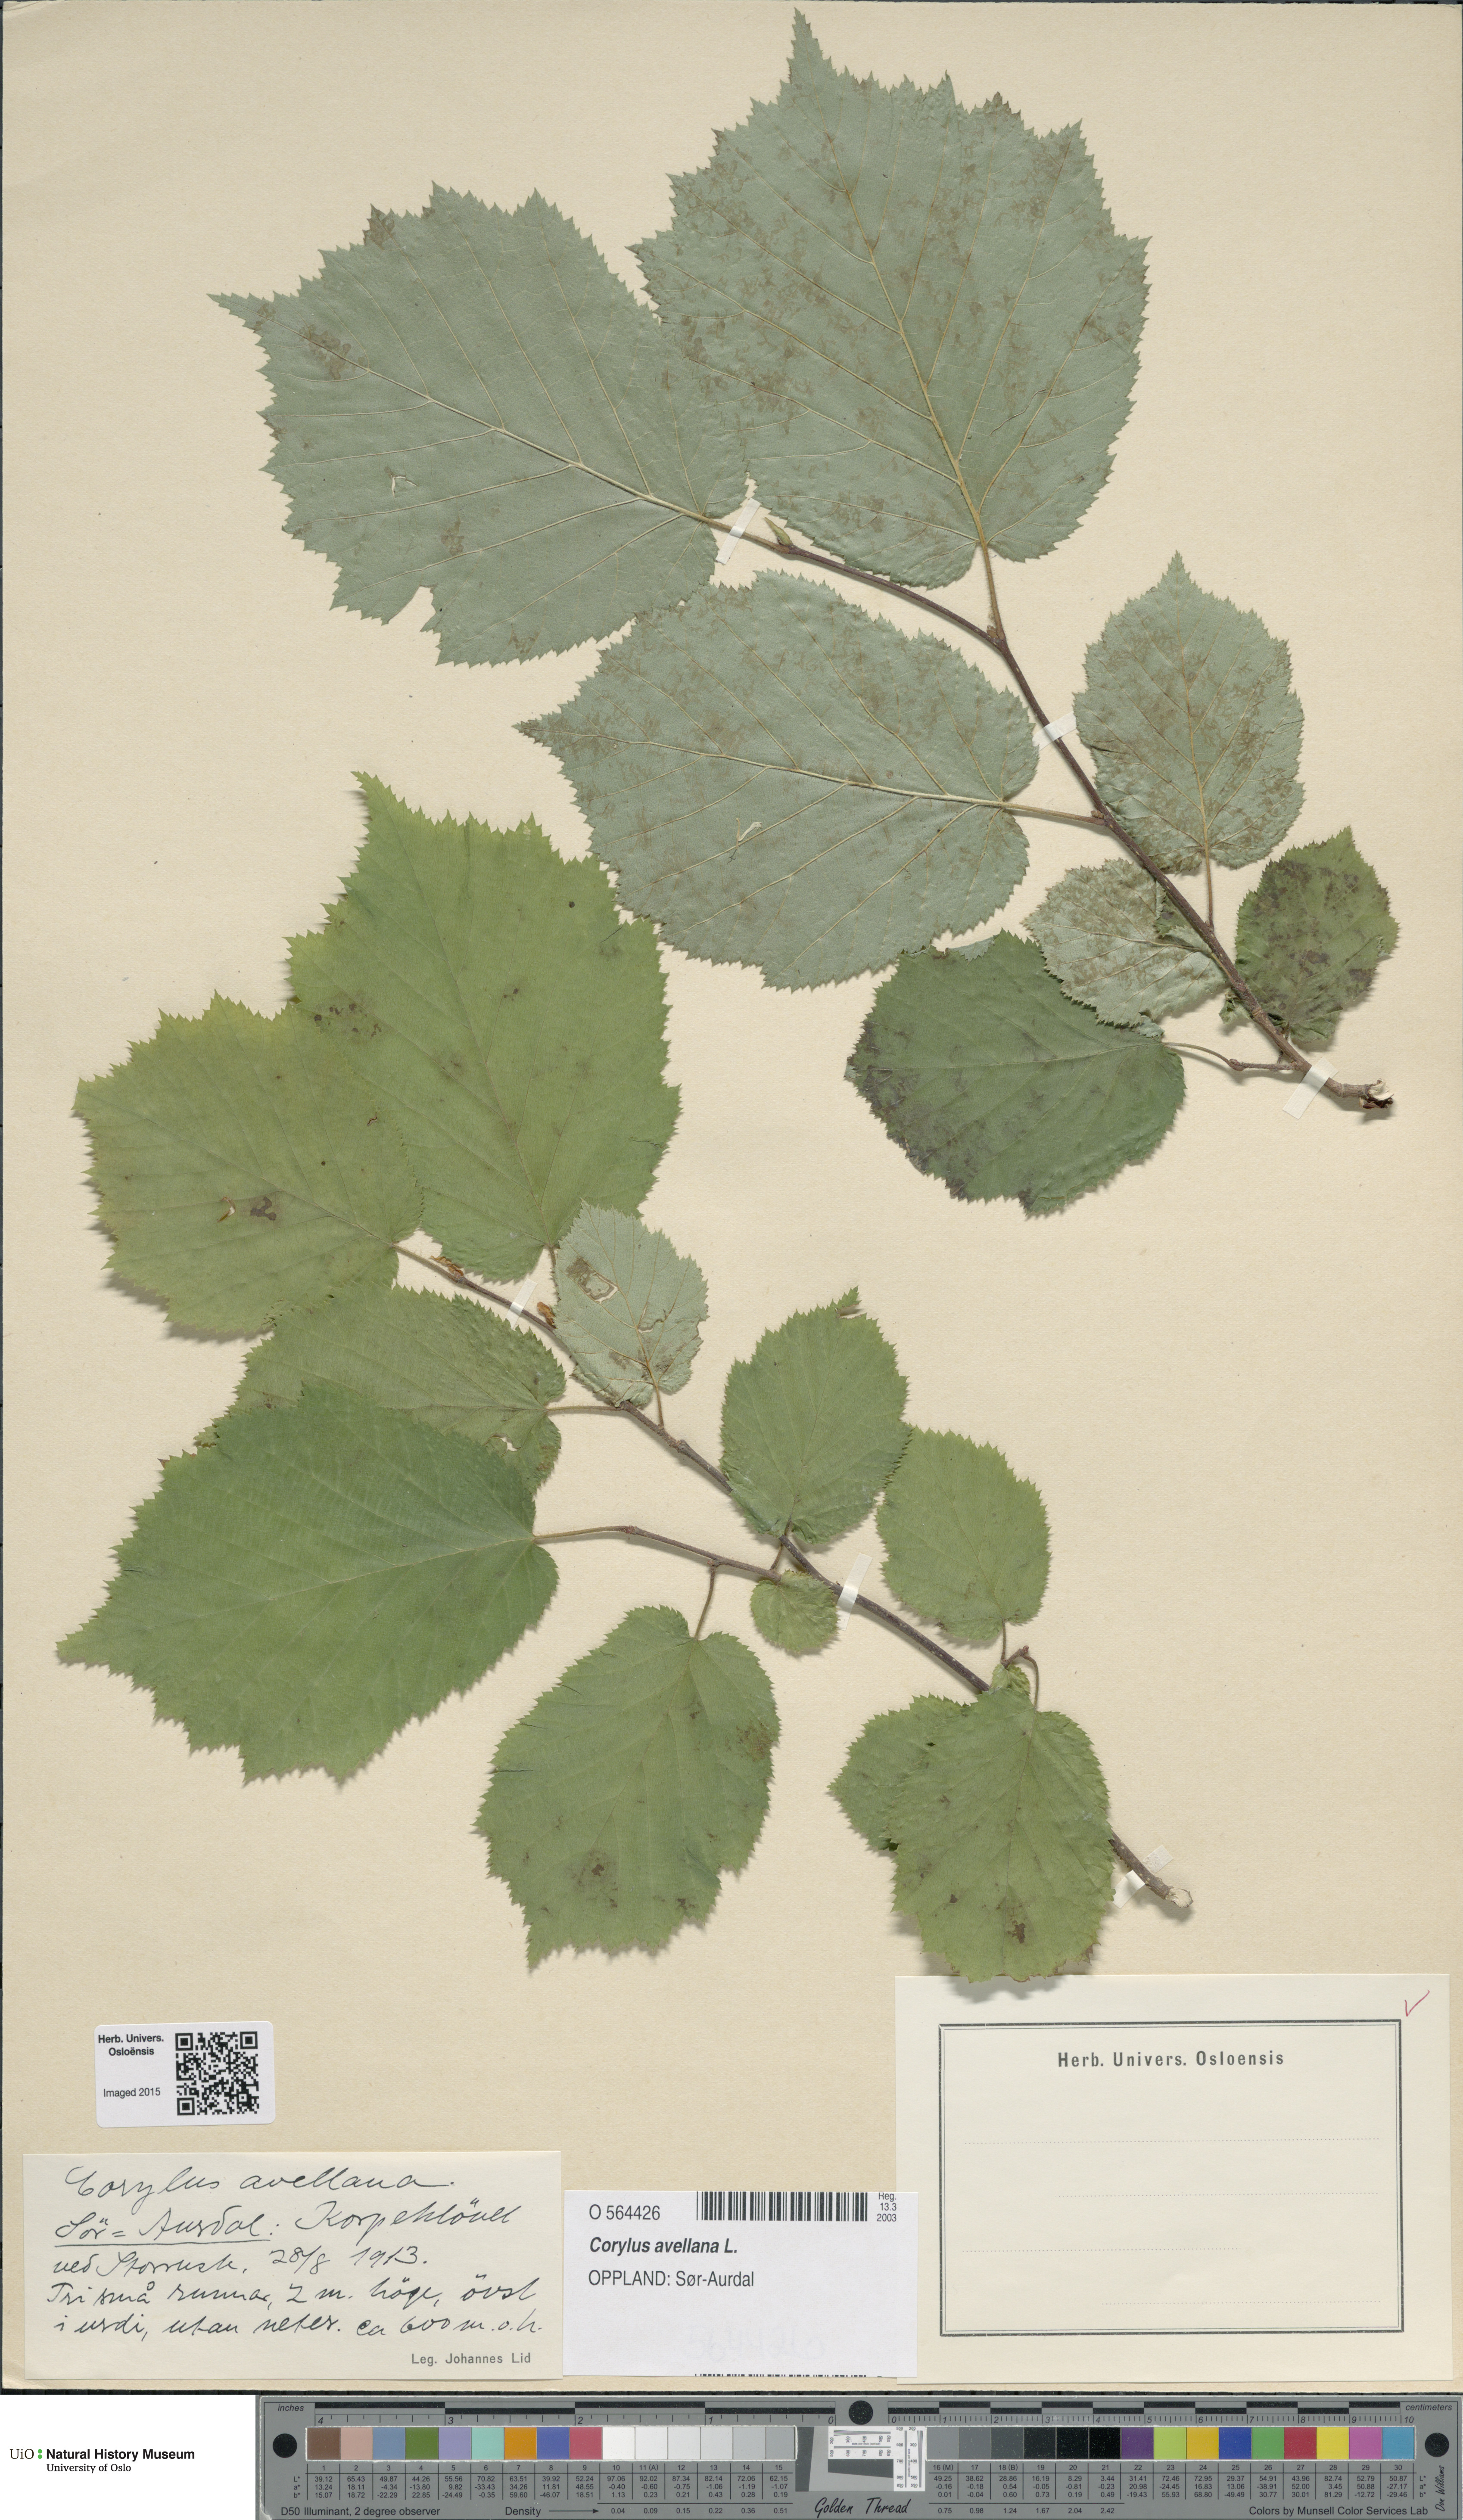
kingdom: Plantae
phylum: Tracheophyta
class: Magnoliopsida
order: Fagales
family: Betulaceae
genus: Corylus
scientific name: Corylus avellana
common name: European hazel
